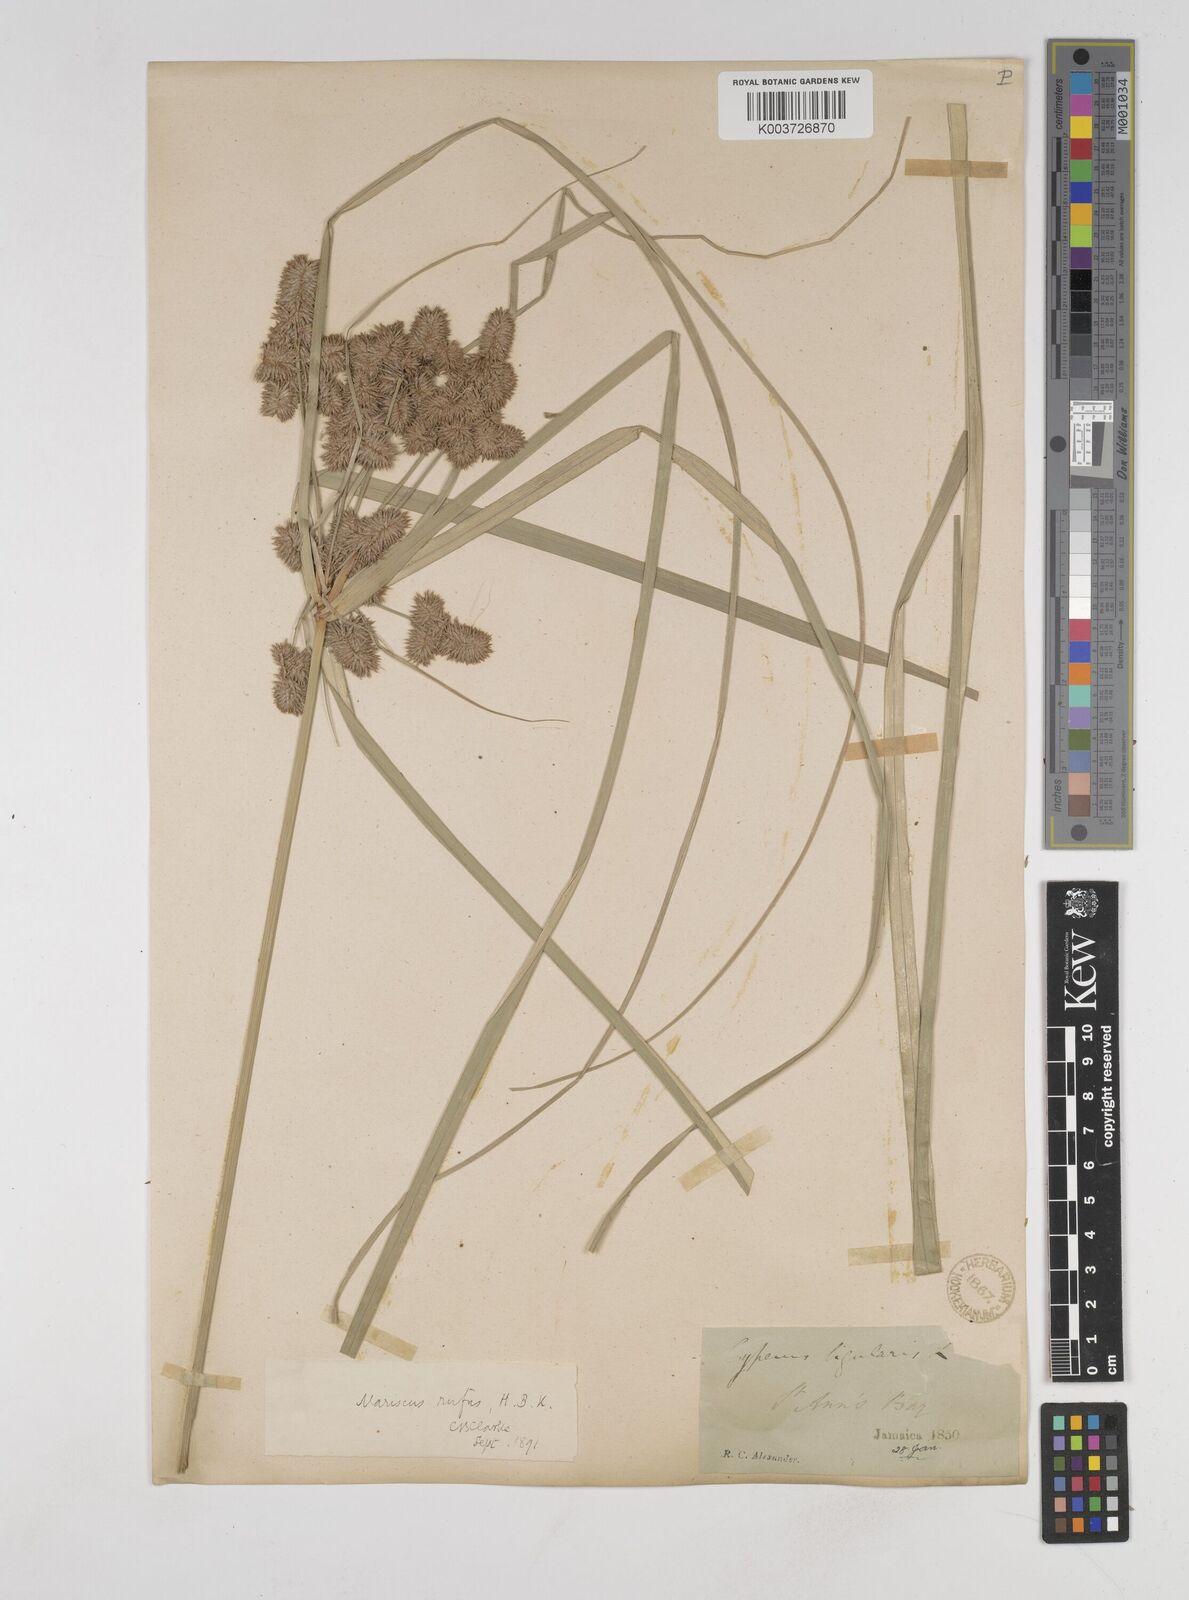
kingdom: Plantae
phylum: Tracheophyta
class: Liliopsida
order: Poales
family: Cyperaceae
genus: Cyperus
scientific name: Cyperus ligularis
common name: Swamp flat sedge
